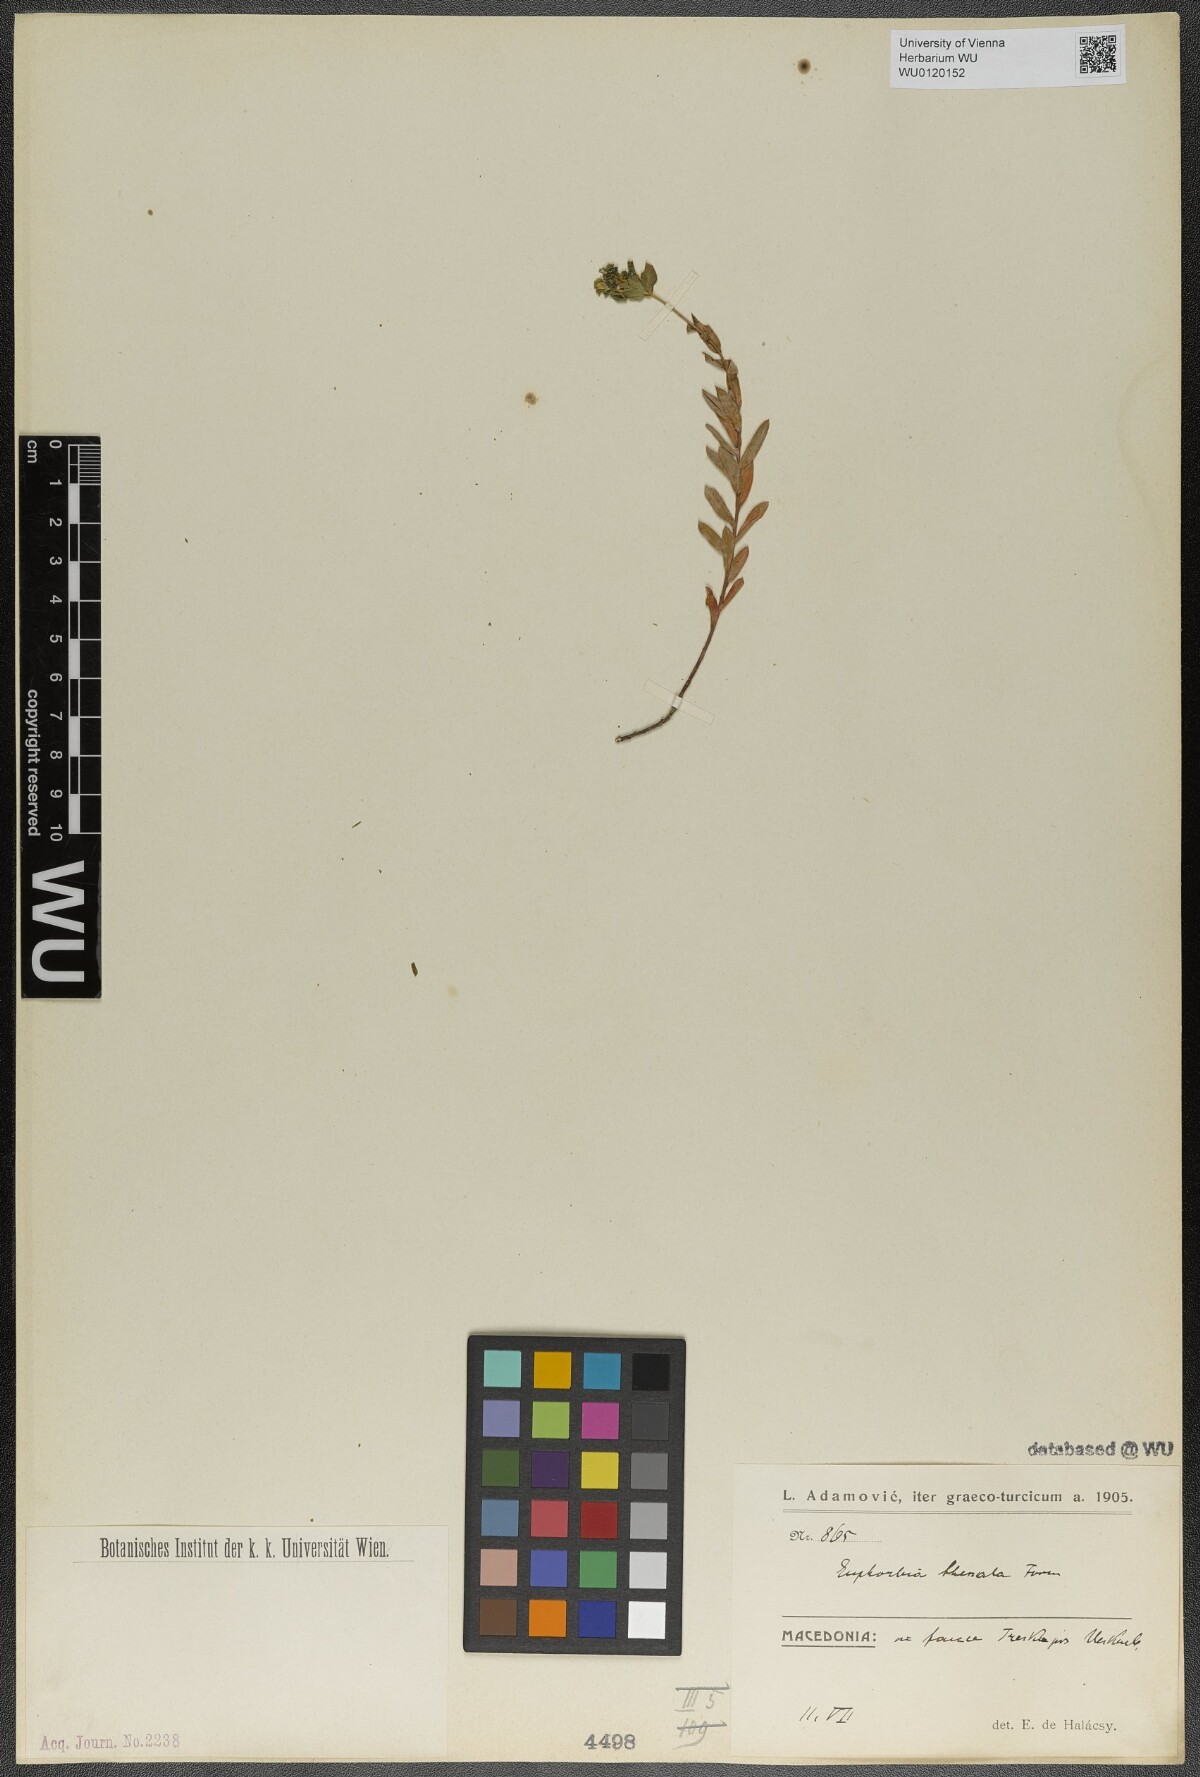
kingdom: Plantae
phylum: Tracheophyta
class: Magnoliopsida
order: Malpighiales
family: Euphorbiaceae
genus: Euphorbia
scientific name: Euphorbia barrelieri
